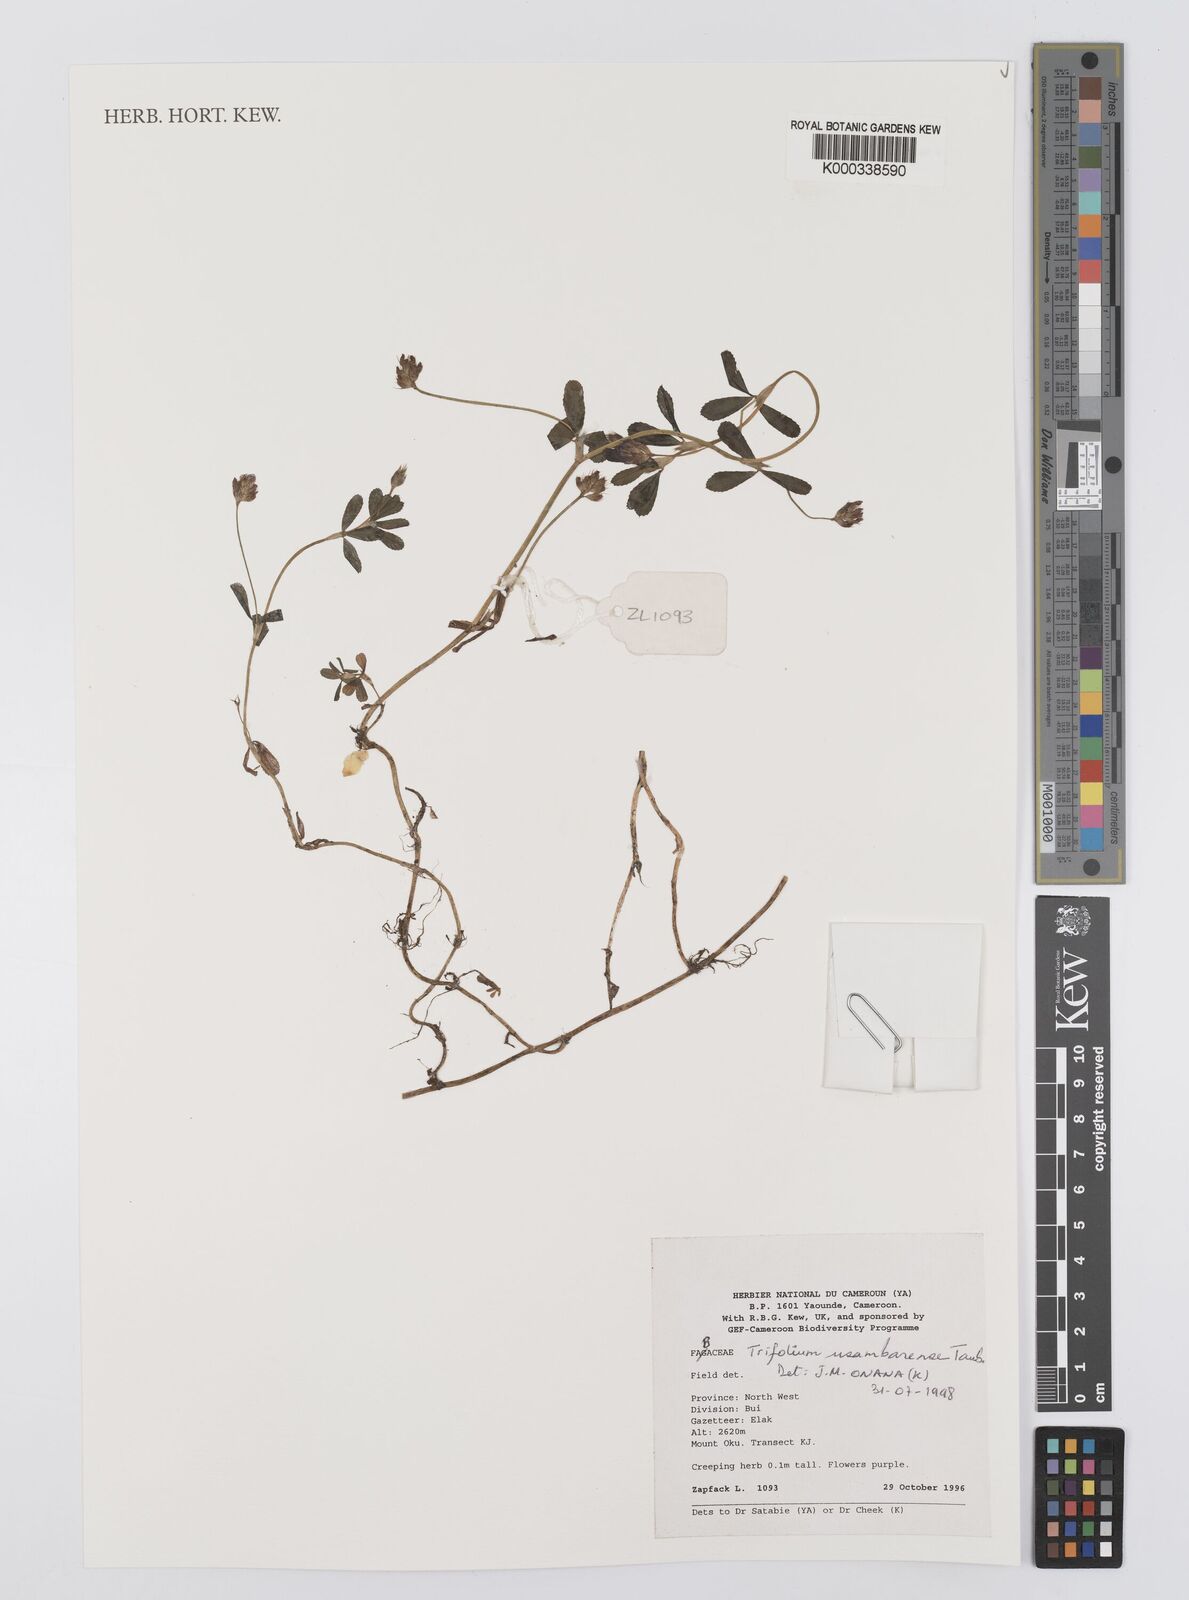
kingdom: Plantae
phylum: Tracheophyta
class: Magnoliopsida
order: Fabales
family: Fabaceae
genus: Trifolium
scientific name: Trifolium usambarense
